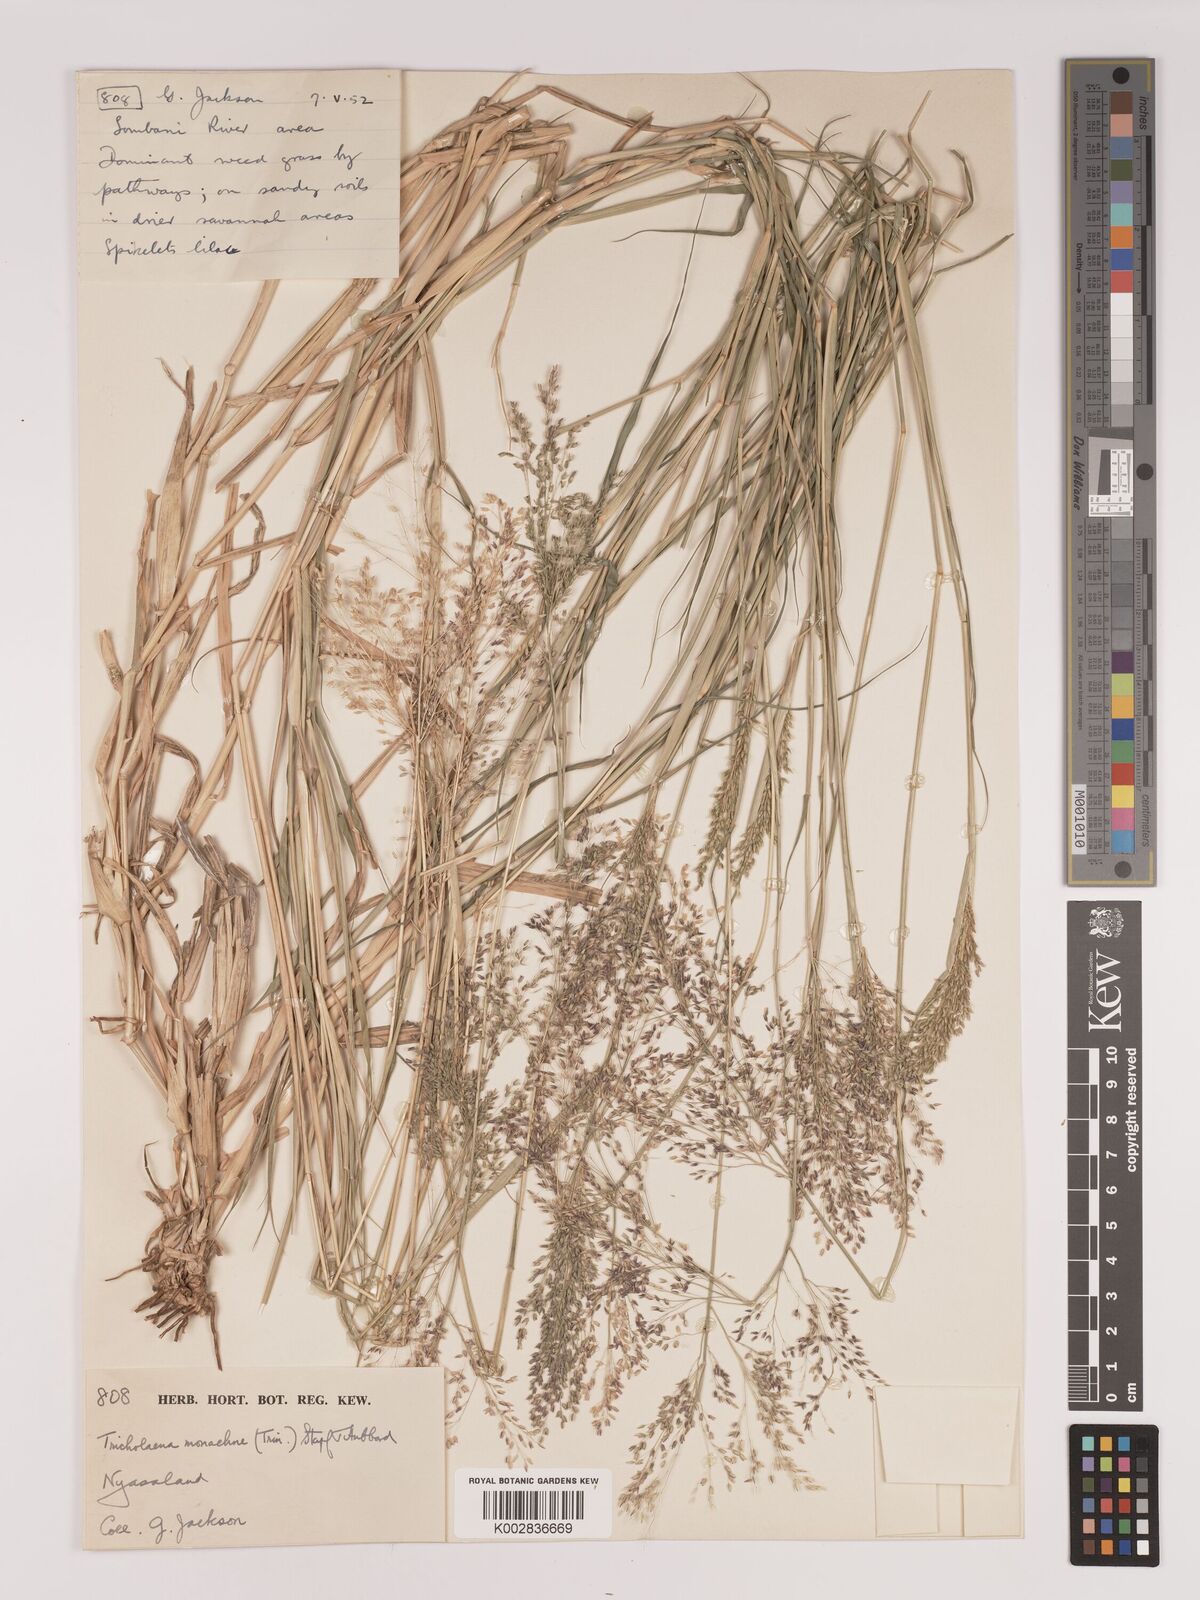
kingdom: Plantae
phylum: Tracheophyta
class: Liliopsida
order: Poales
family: Poaceae
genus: Tricholaena
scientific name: Tricholaena monachne
